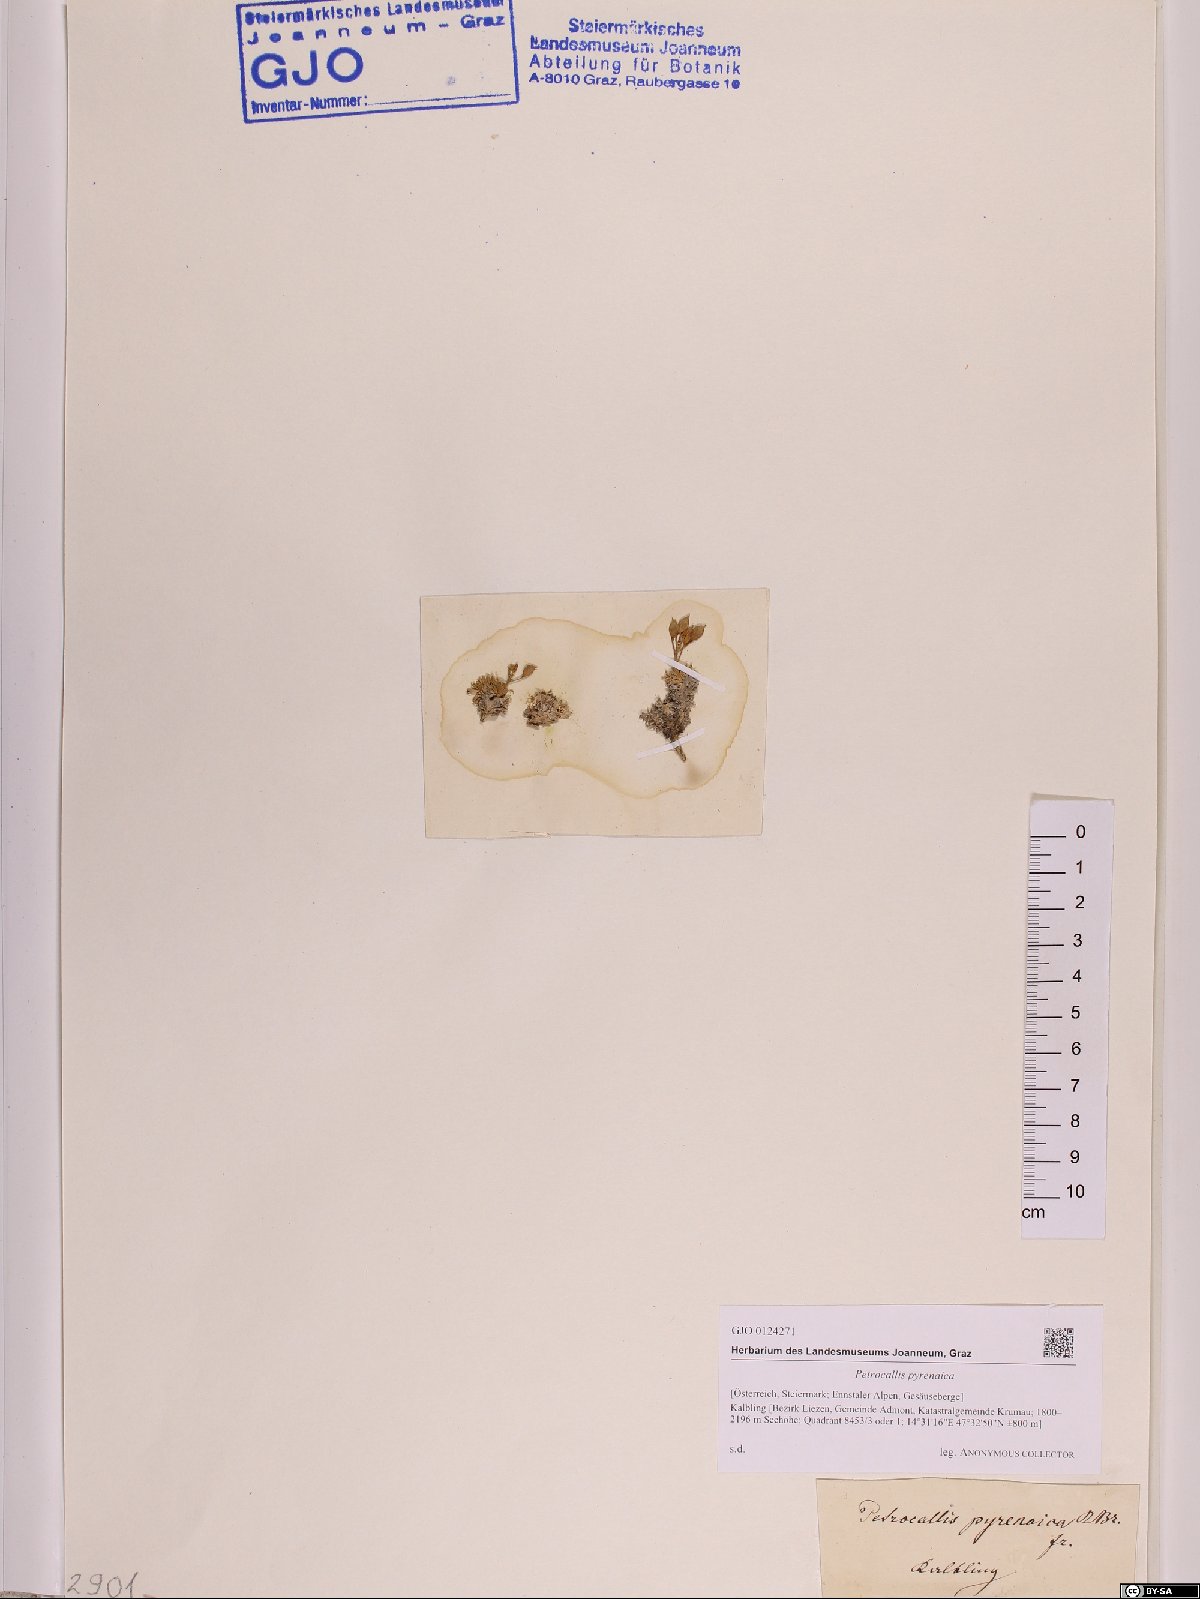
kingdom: Plantae
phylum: Tracheophyta
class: Magnoliopsida
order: Brassicales
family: Brassicaceae
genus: Petrocallis
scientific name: Petrocallis pyrenaica
